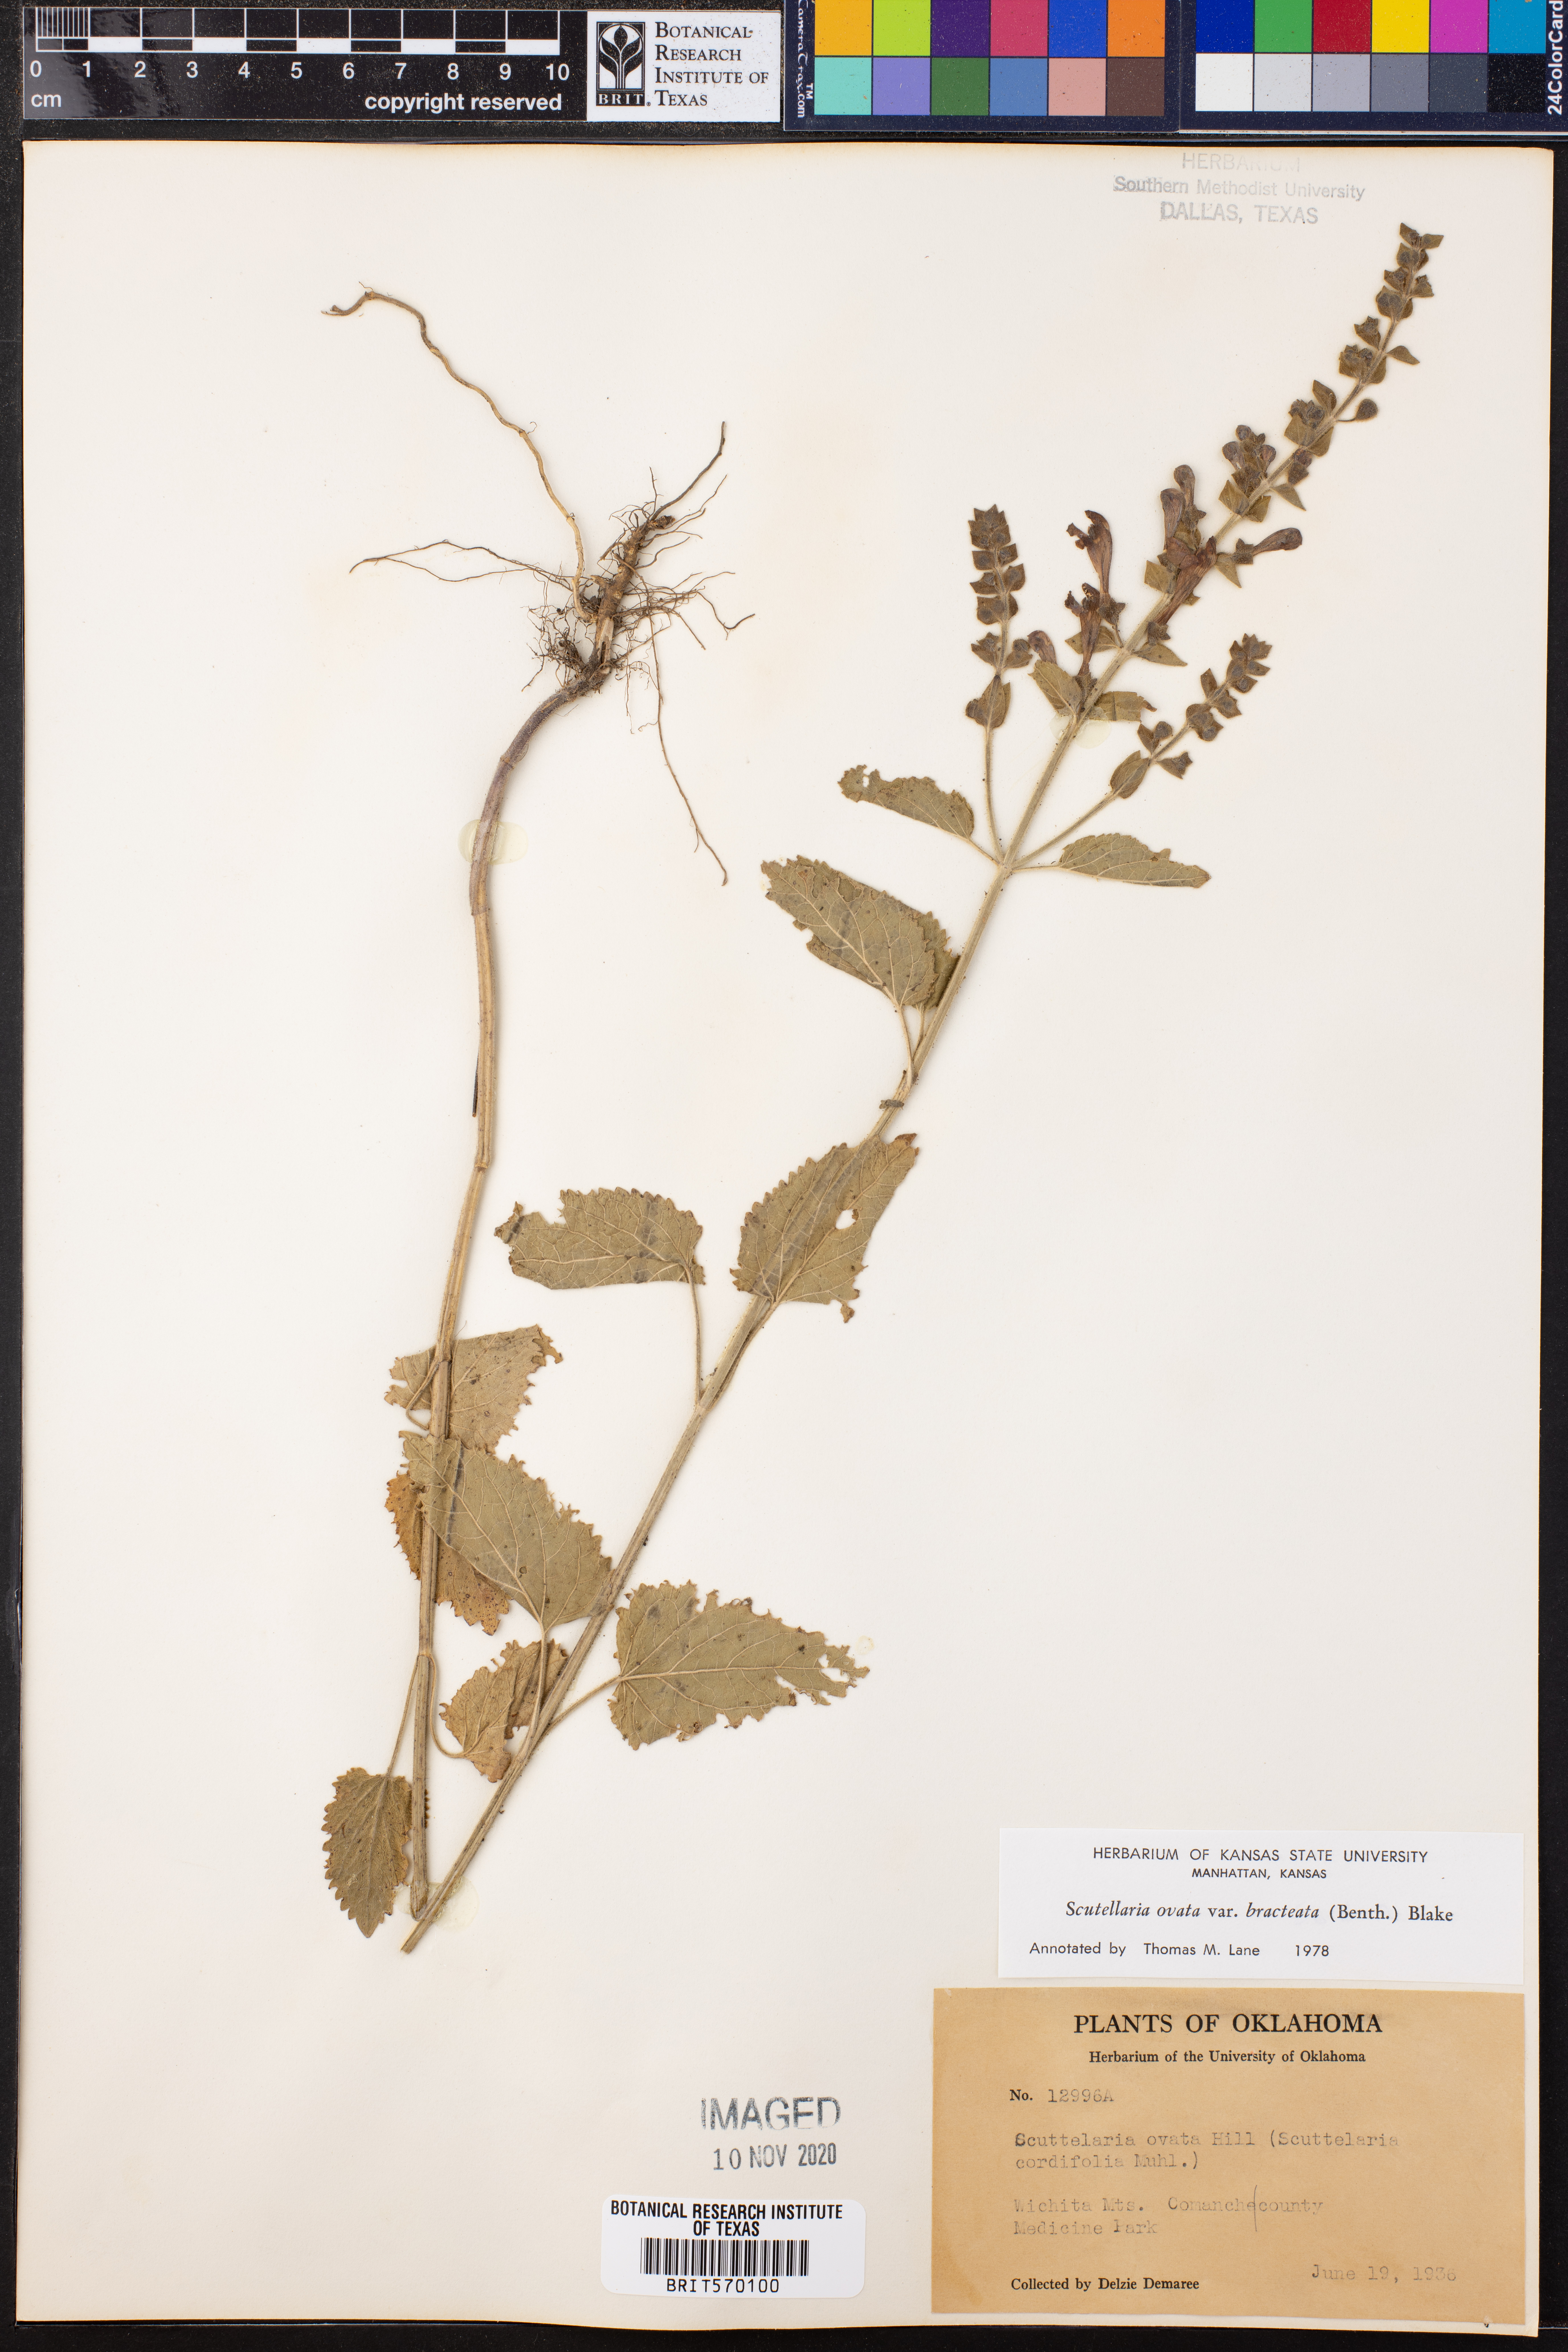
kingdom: Plantae
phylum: Tracheophyta
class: Magnoliopsida
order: Lamiales
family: Lamiaceae
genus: Scutellaria
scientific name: Scutellaria ovata
